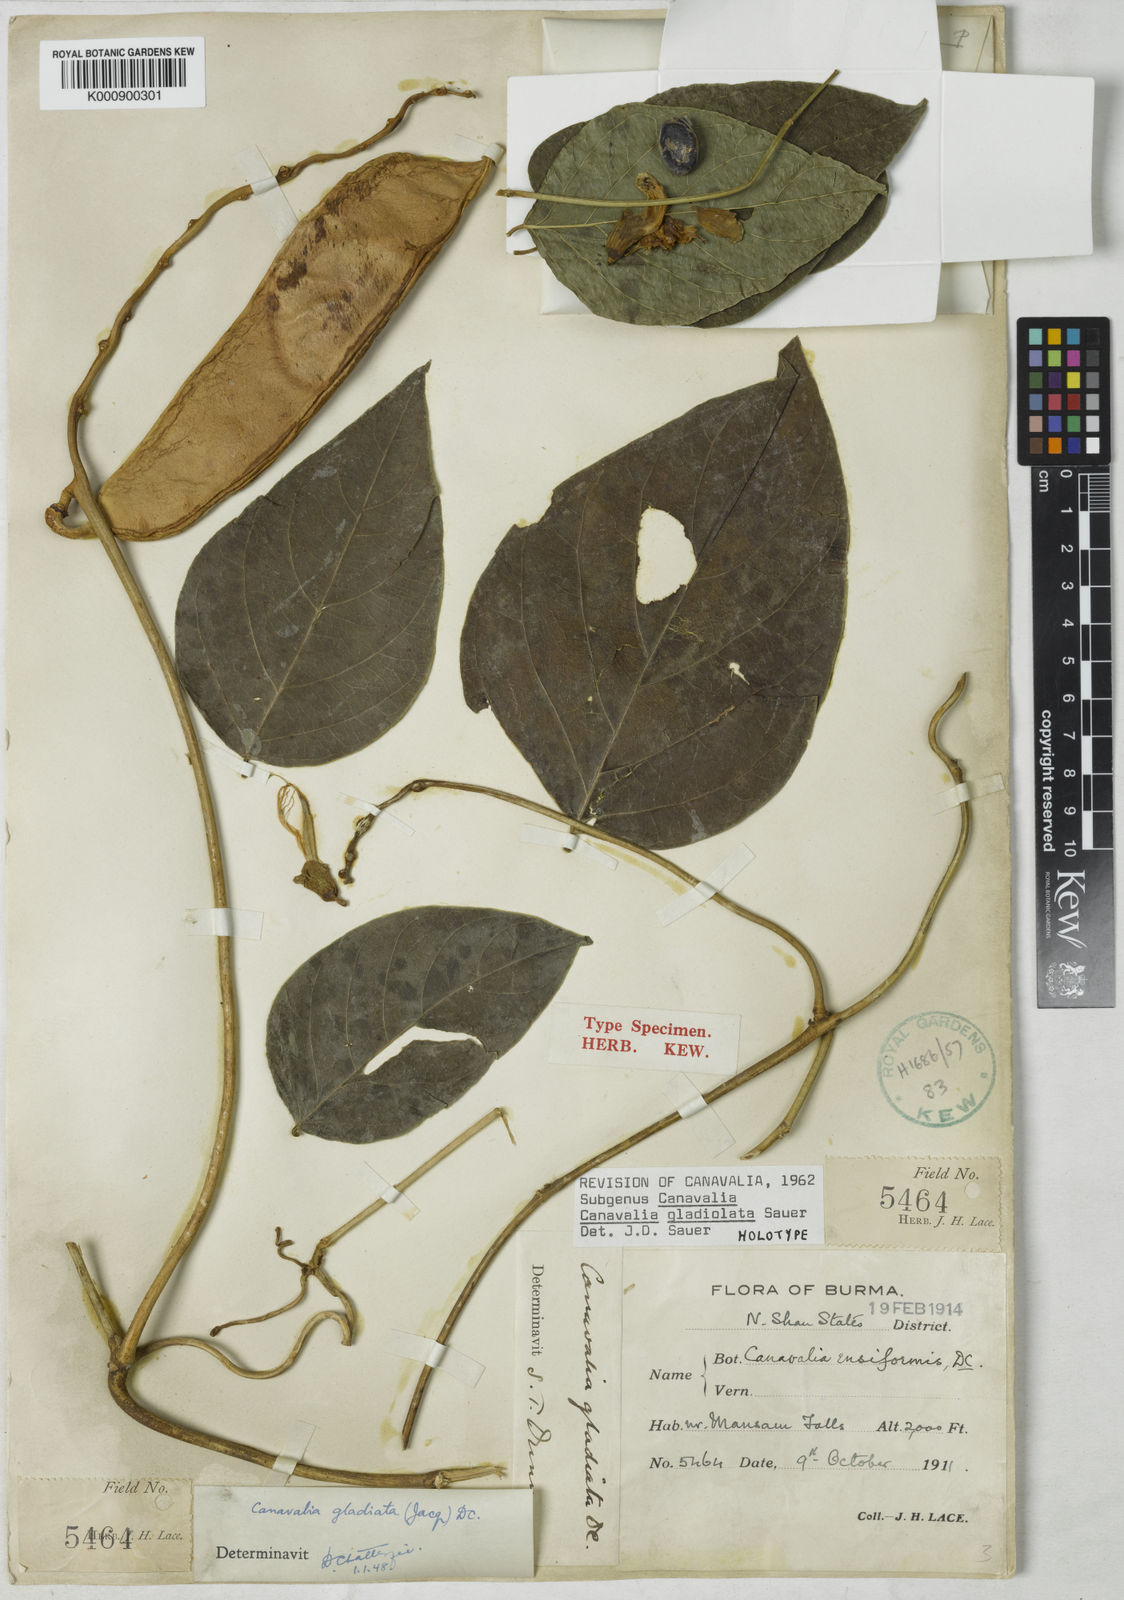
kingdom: Plantae
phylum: Tracheophyta
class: Magnoliopsida
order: Fabales
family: Fabaceae
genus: Canavalia
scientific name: Canavalia gladiolata
